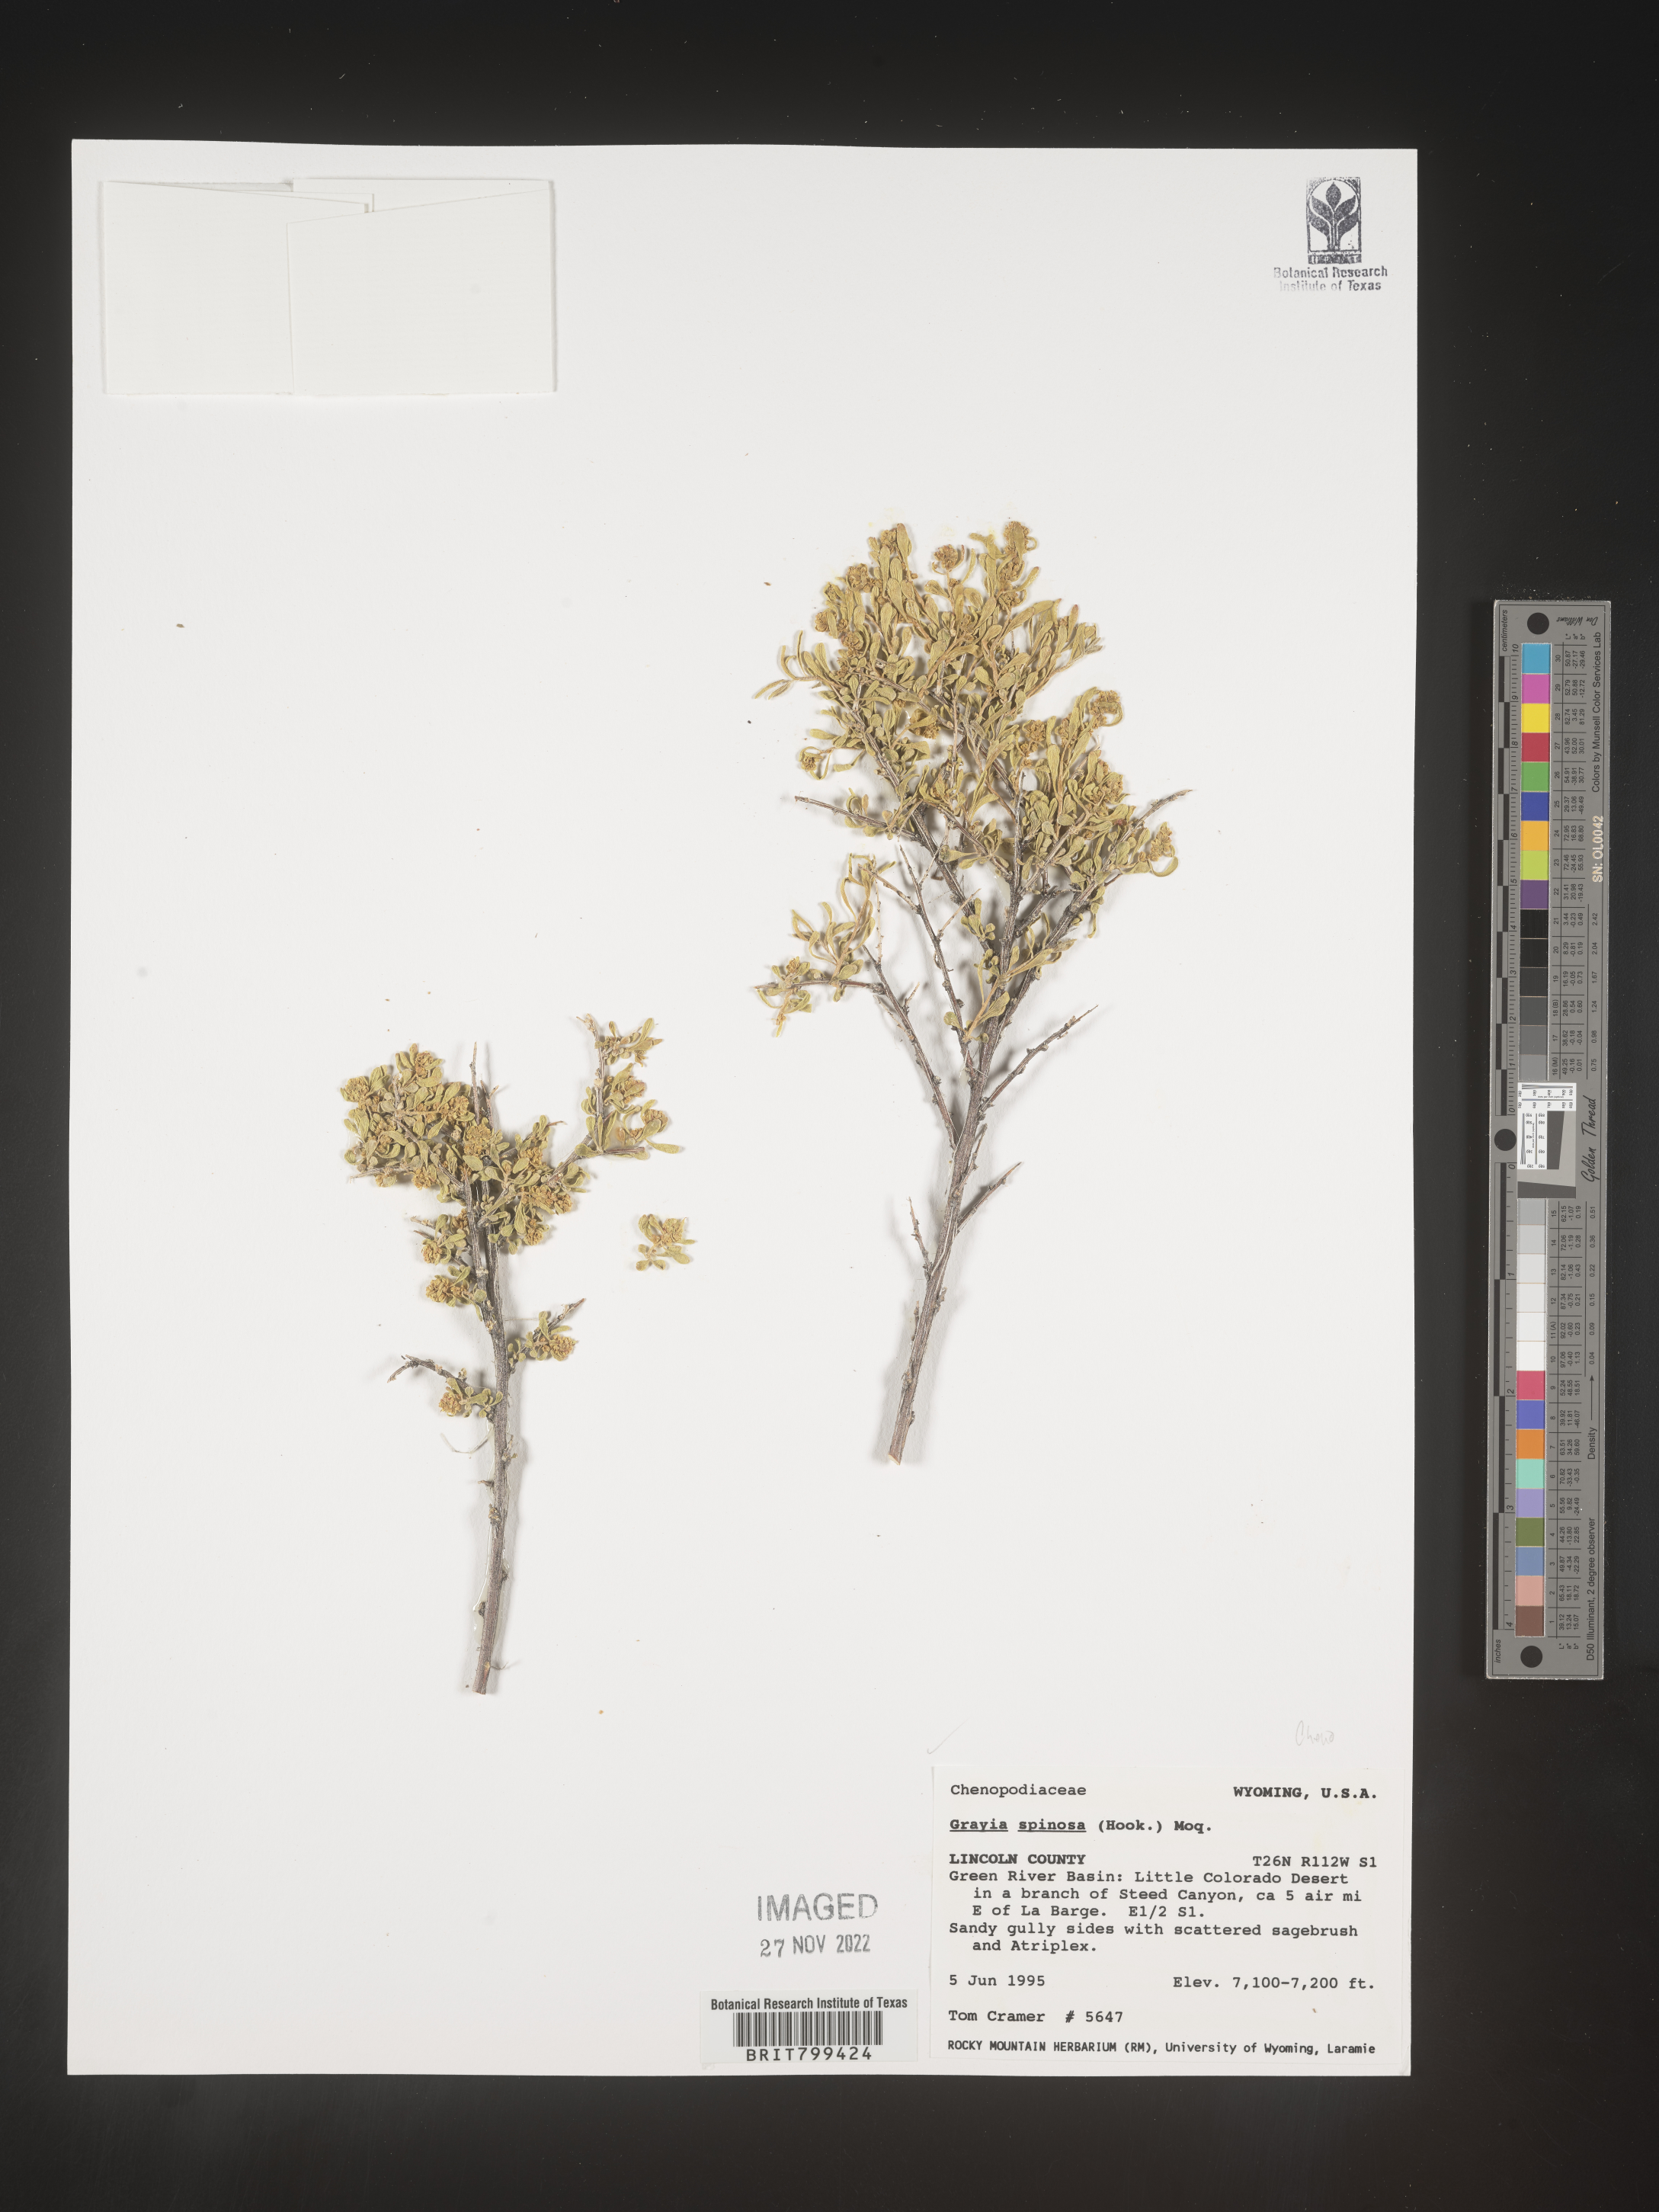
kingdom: Plantae
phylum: Tracheophyta
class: Magnoliopsida
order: Caryophyllales
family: Amaranthaceae
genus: Grayia
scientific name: Grayia spinosa
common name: Spiny hopsage
